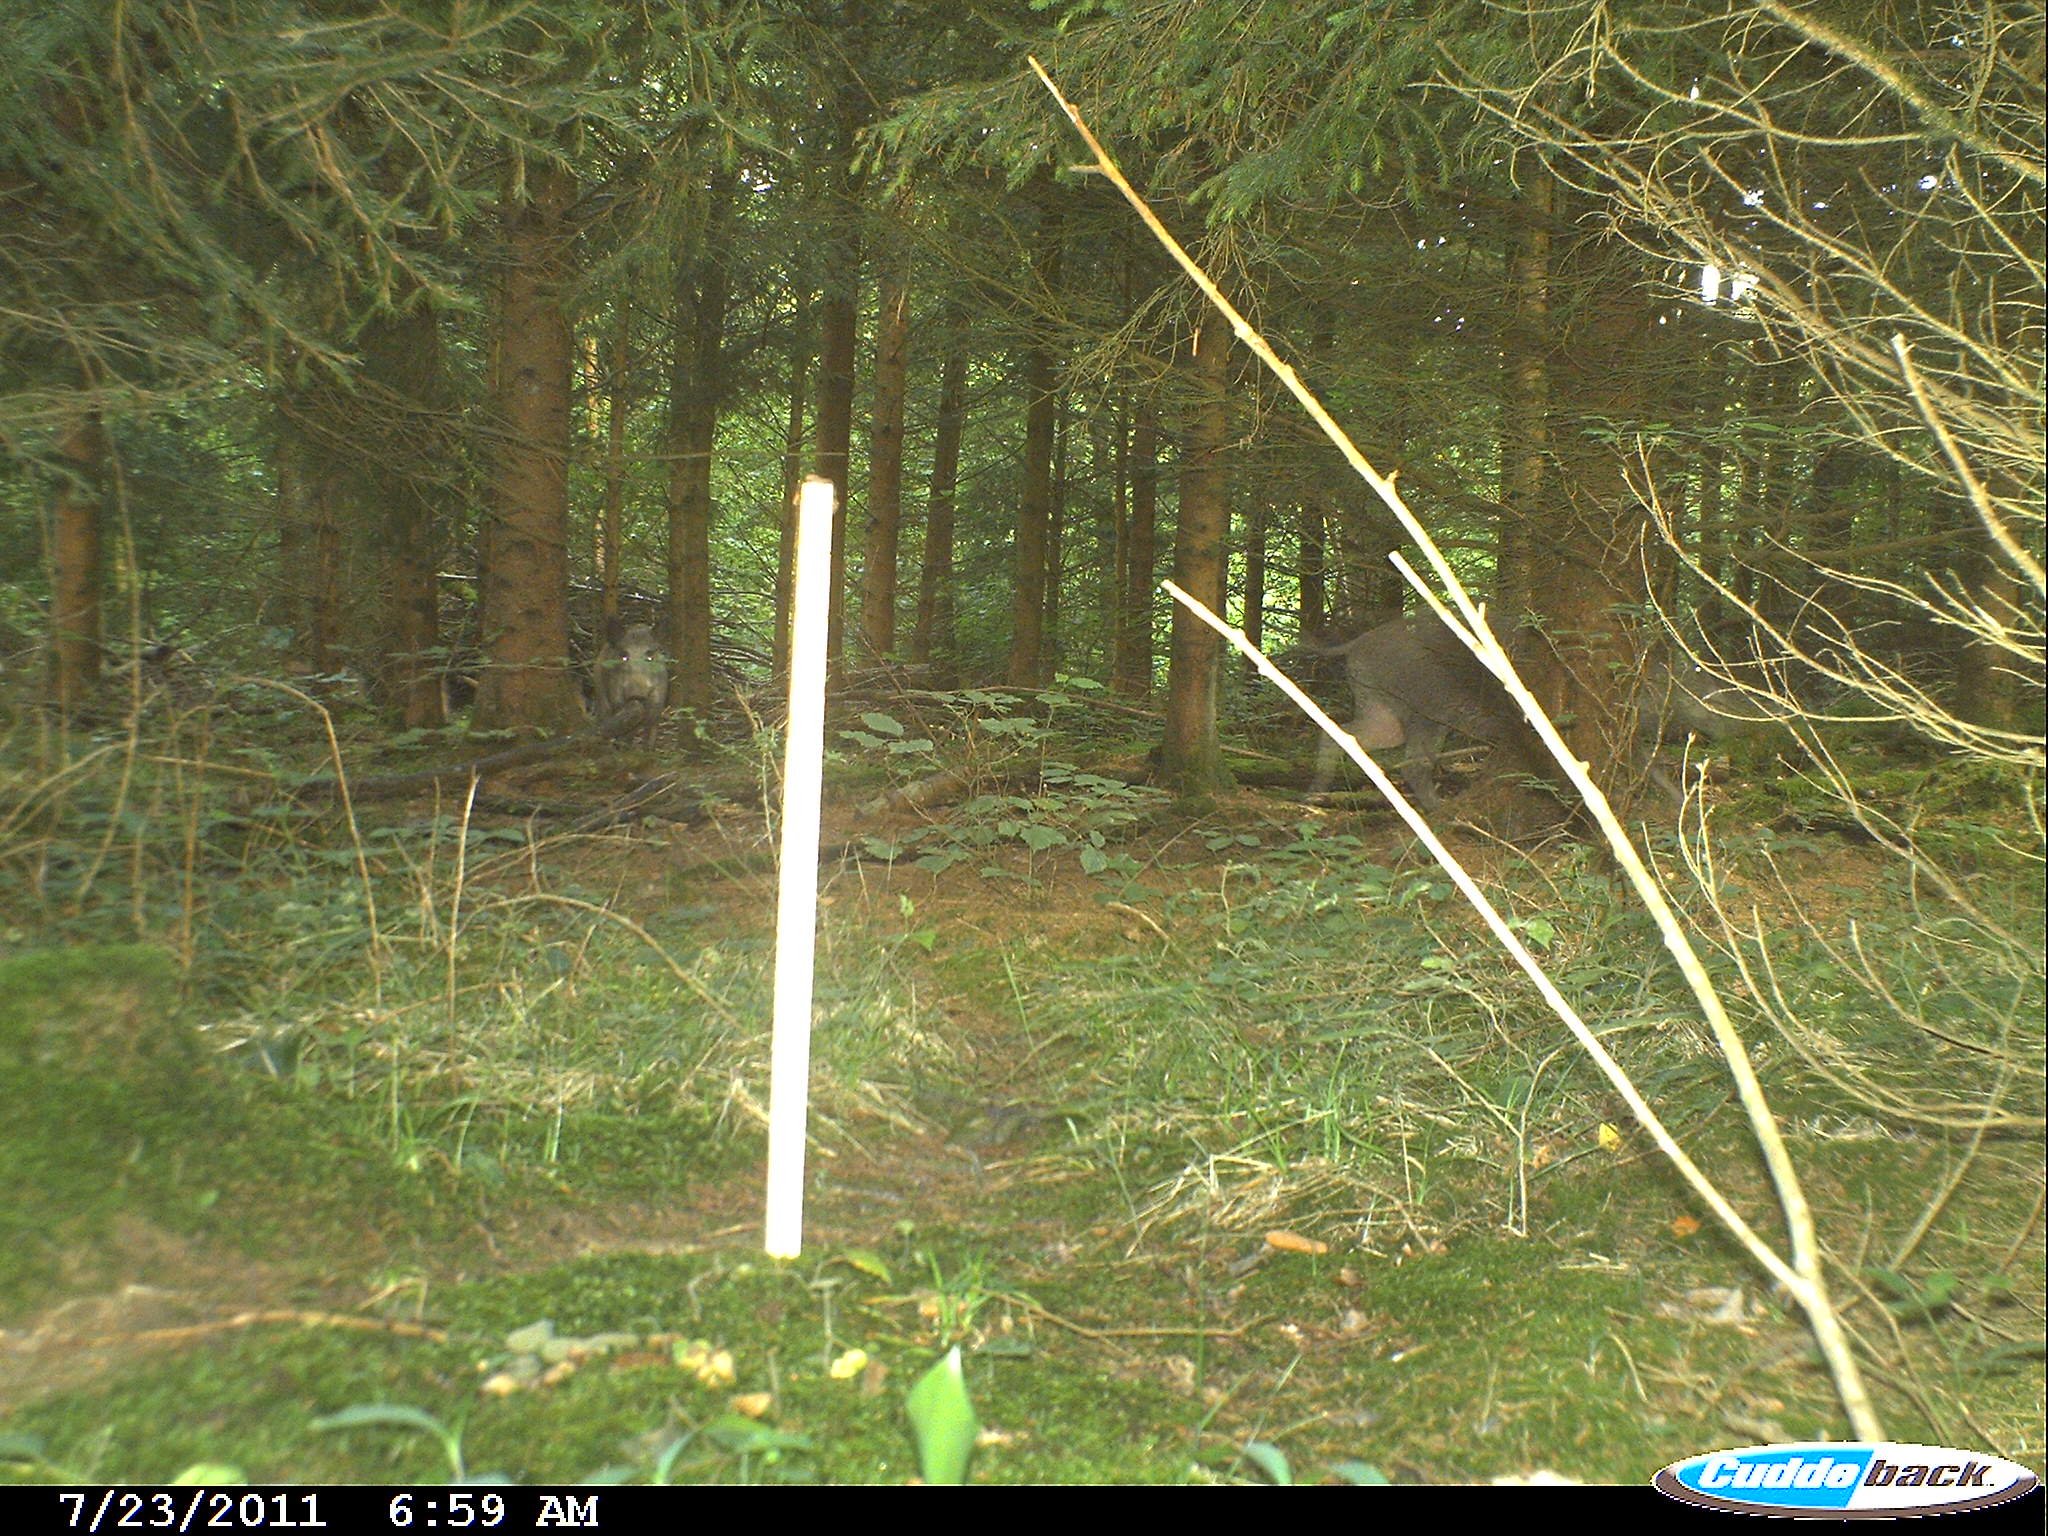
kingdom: Animalia
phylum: Chordata
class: Mammalia
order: Artiodactyla
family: Suidae
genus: Sus
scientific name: Sus scrofa
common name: Wild boar
